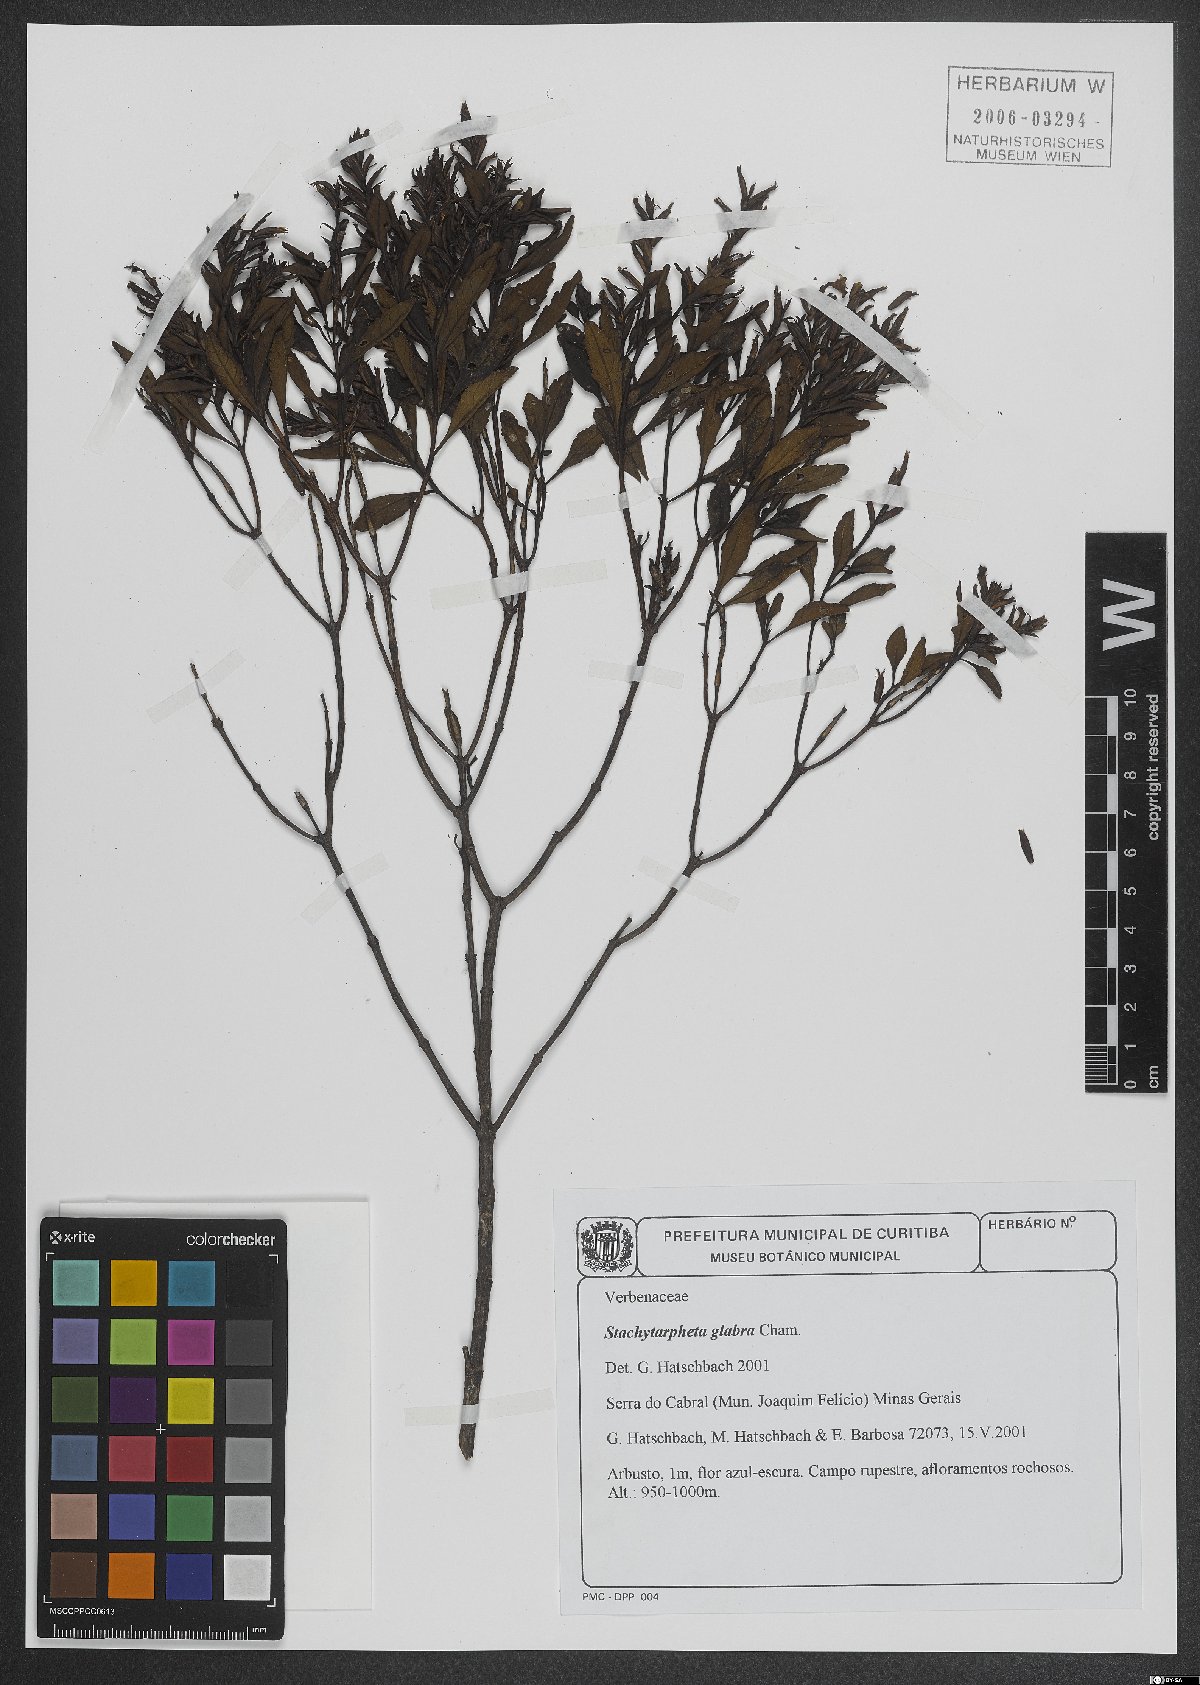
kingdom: Plantae
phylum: Tracheophyta
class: Magnoliopsida
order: Lamiales
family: Verbenaceae
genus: Stachytarpheta
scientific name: Stachytarpheta glabra
